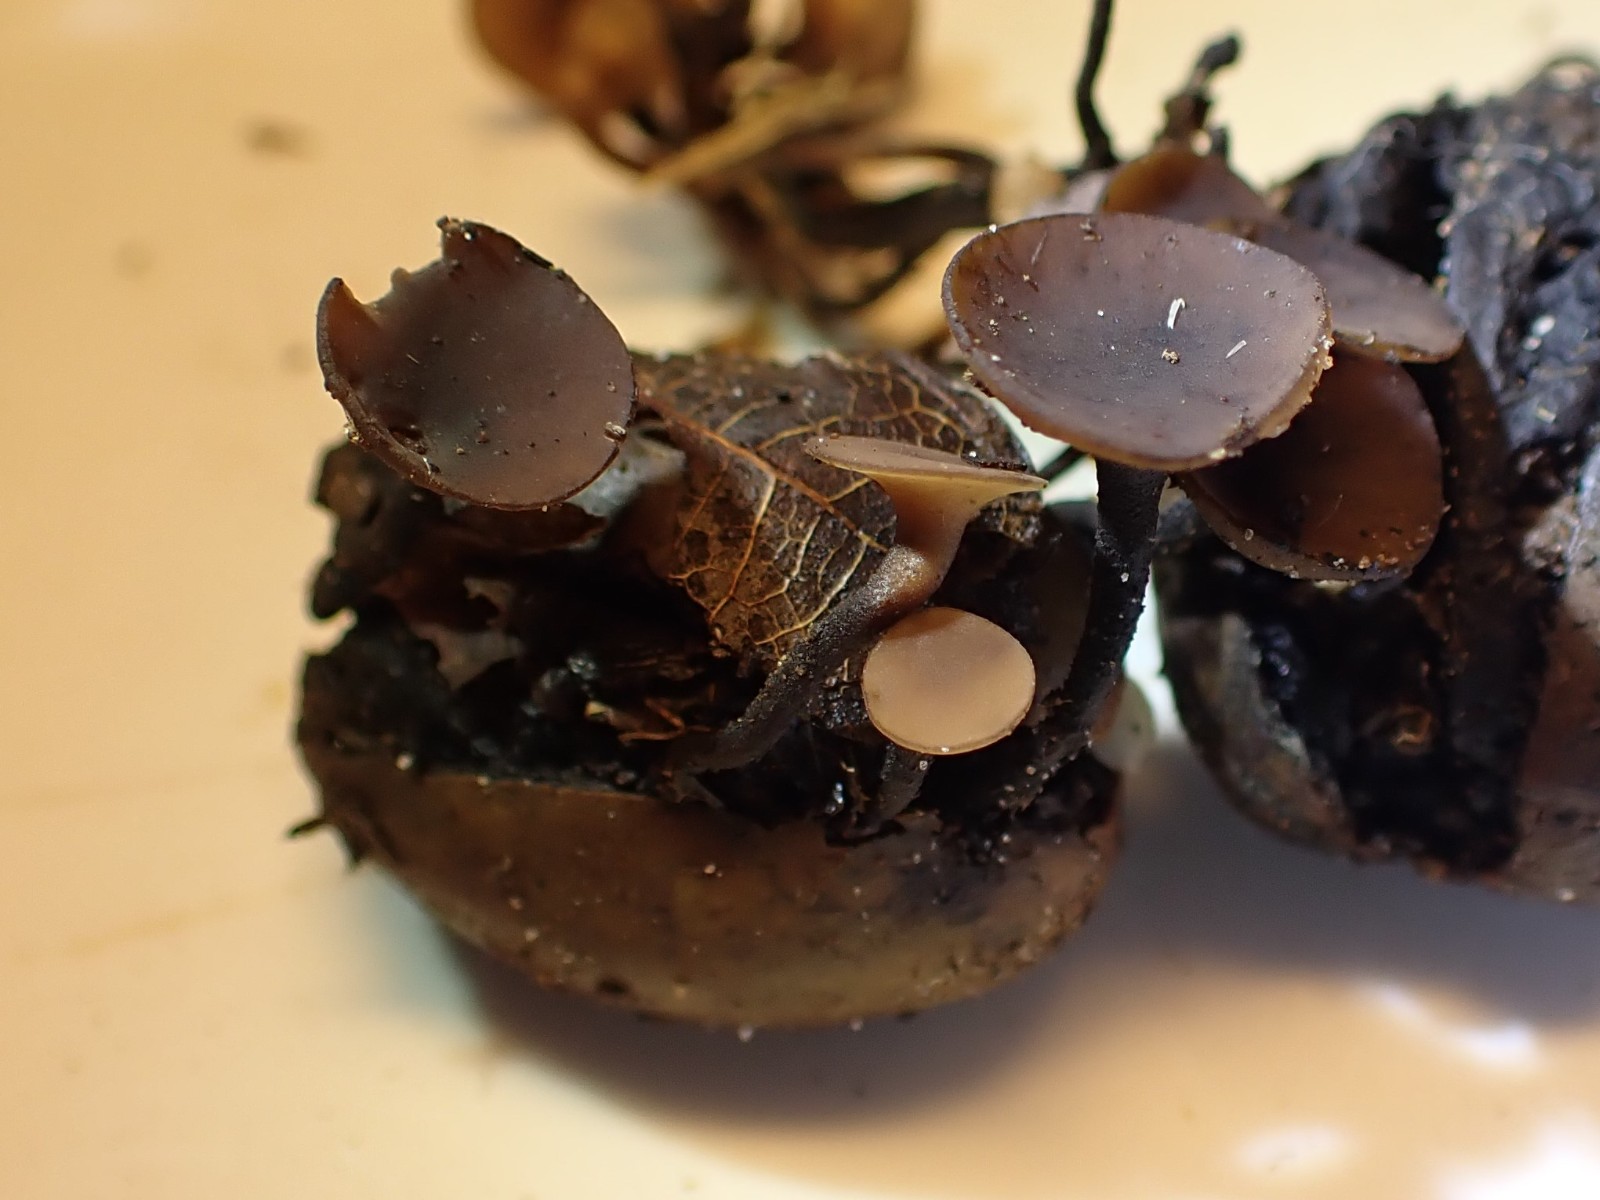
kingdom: Fungi
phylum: Ascomycota
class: Leotiomycetes
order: Helotiales
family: Sclerotiniaceae
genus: Ciboria
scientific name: Ciboria batschiana
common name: agern-knoldskive
